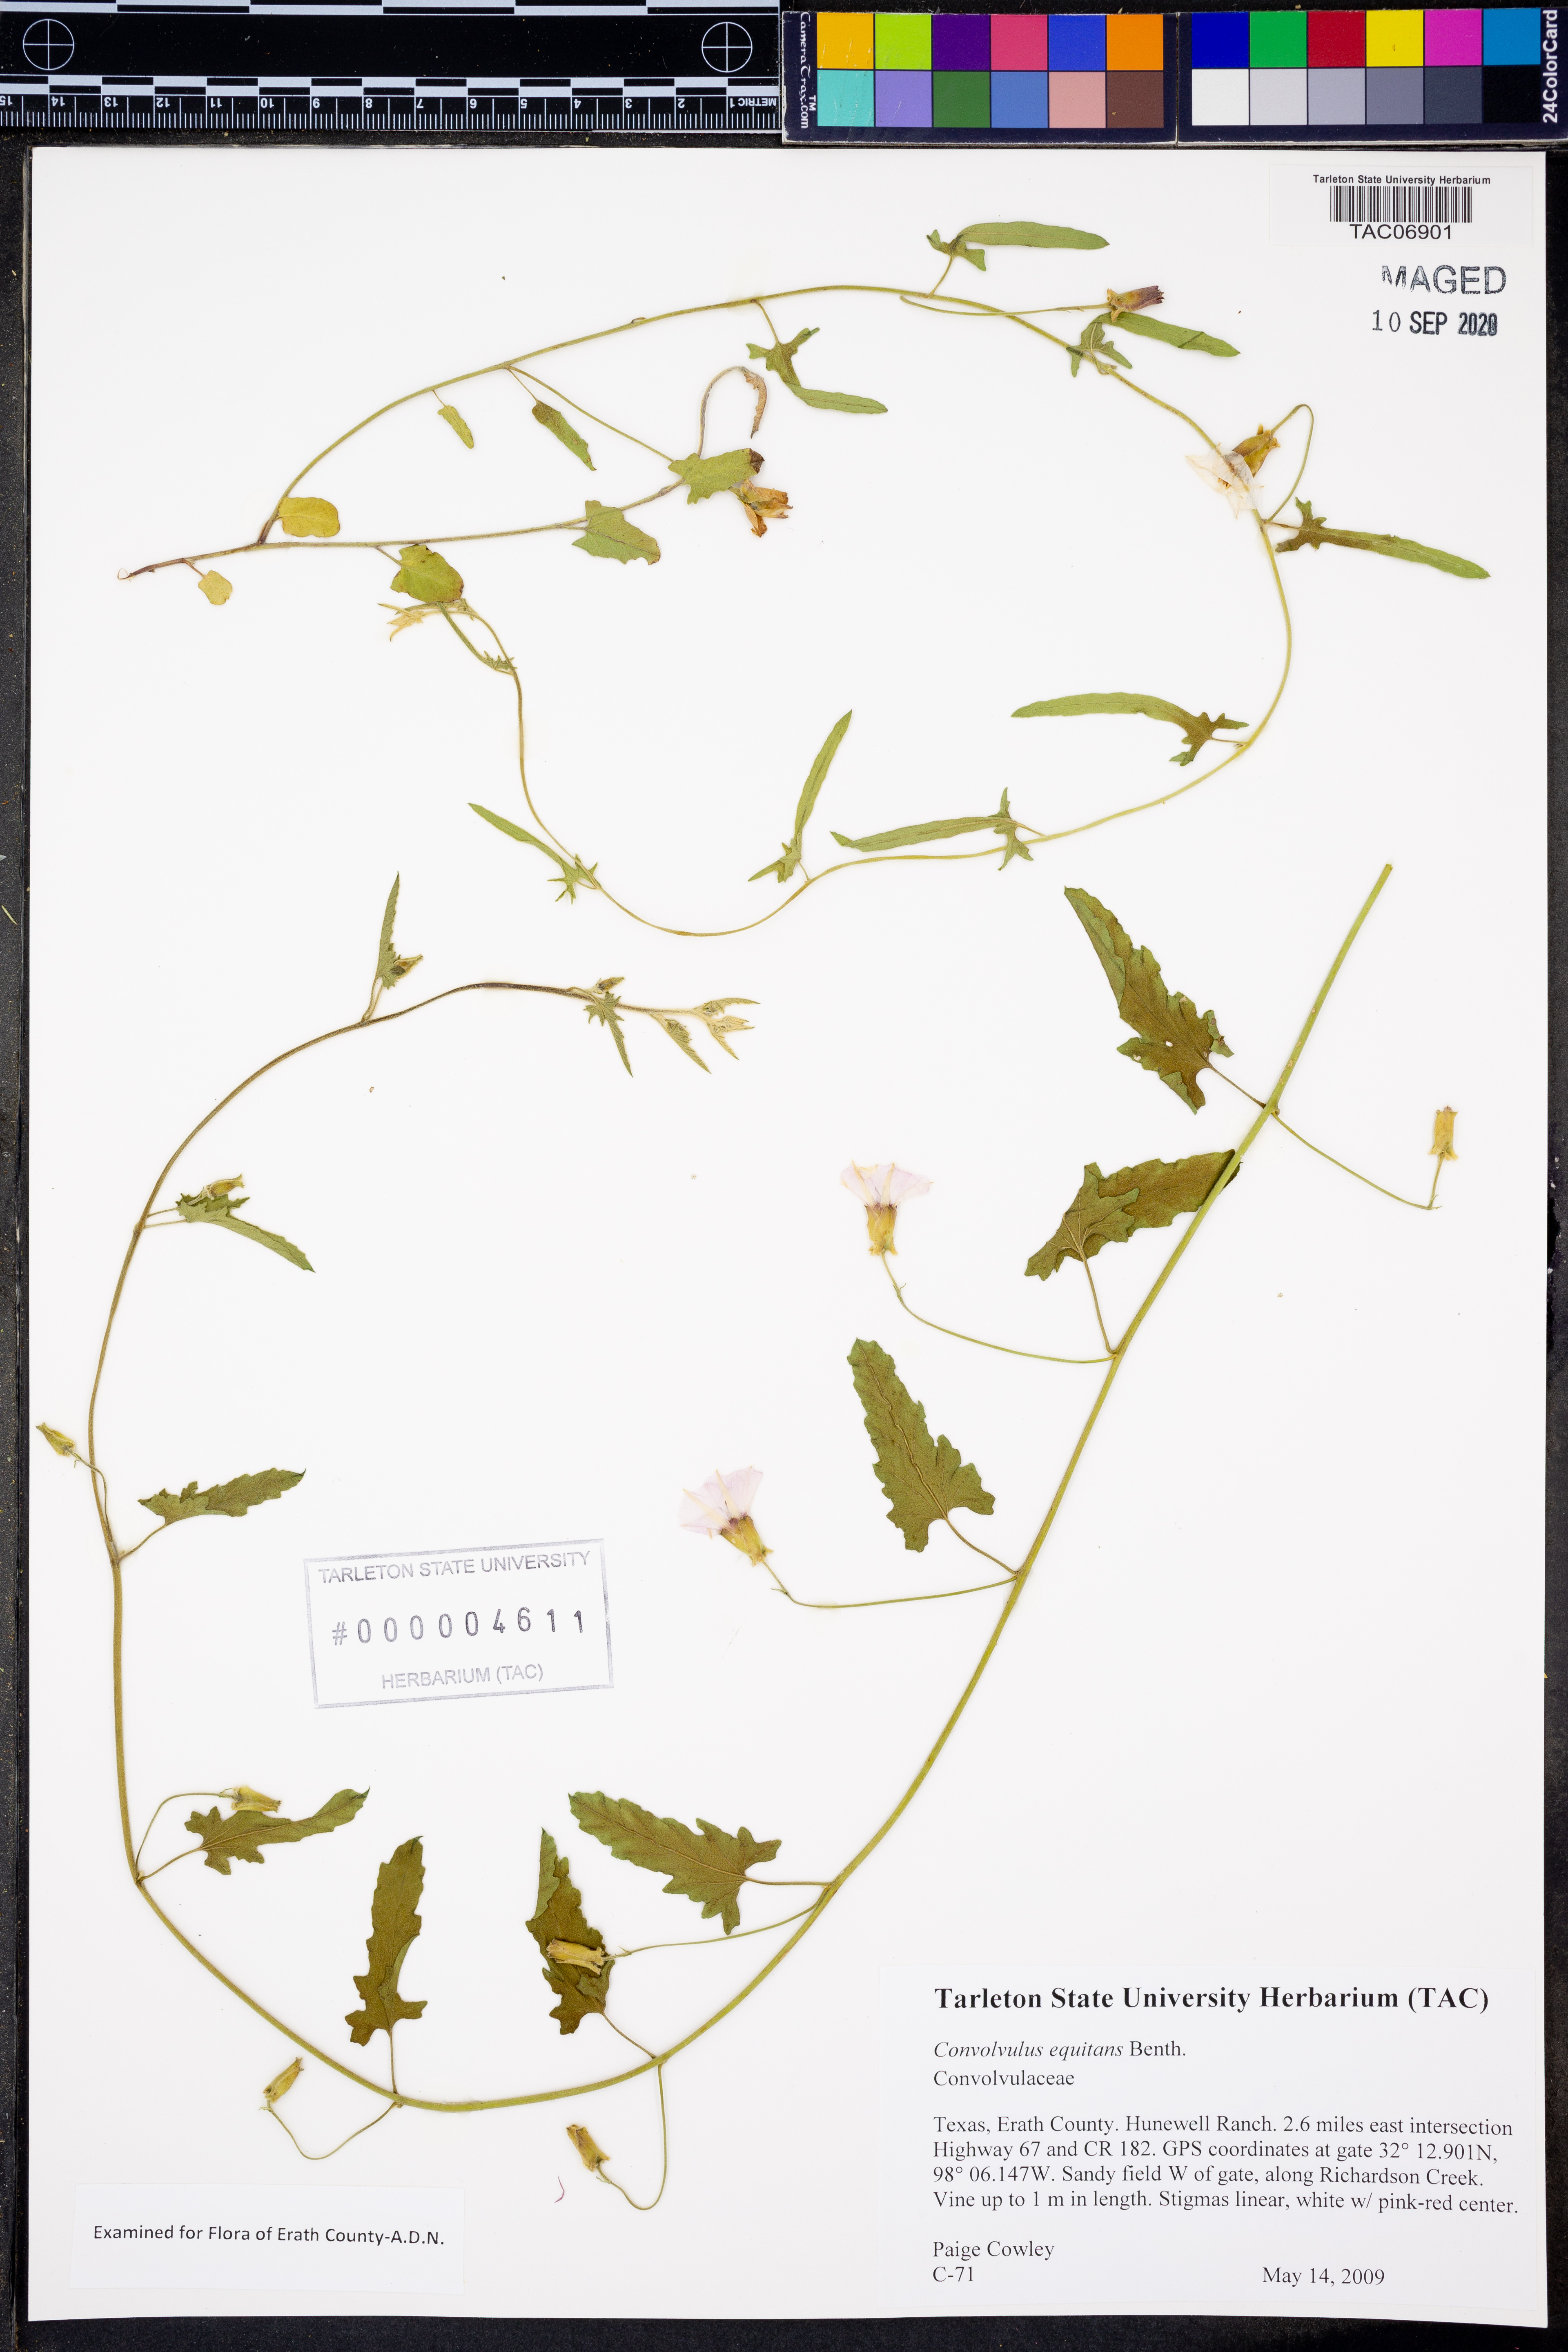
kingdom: Plantae
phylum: Tracheophyta
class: Magnoliopsida
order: Solanales
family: Convolvulaceae
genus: Convolvulus
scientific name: Convolvulus equitans
